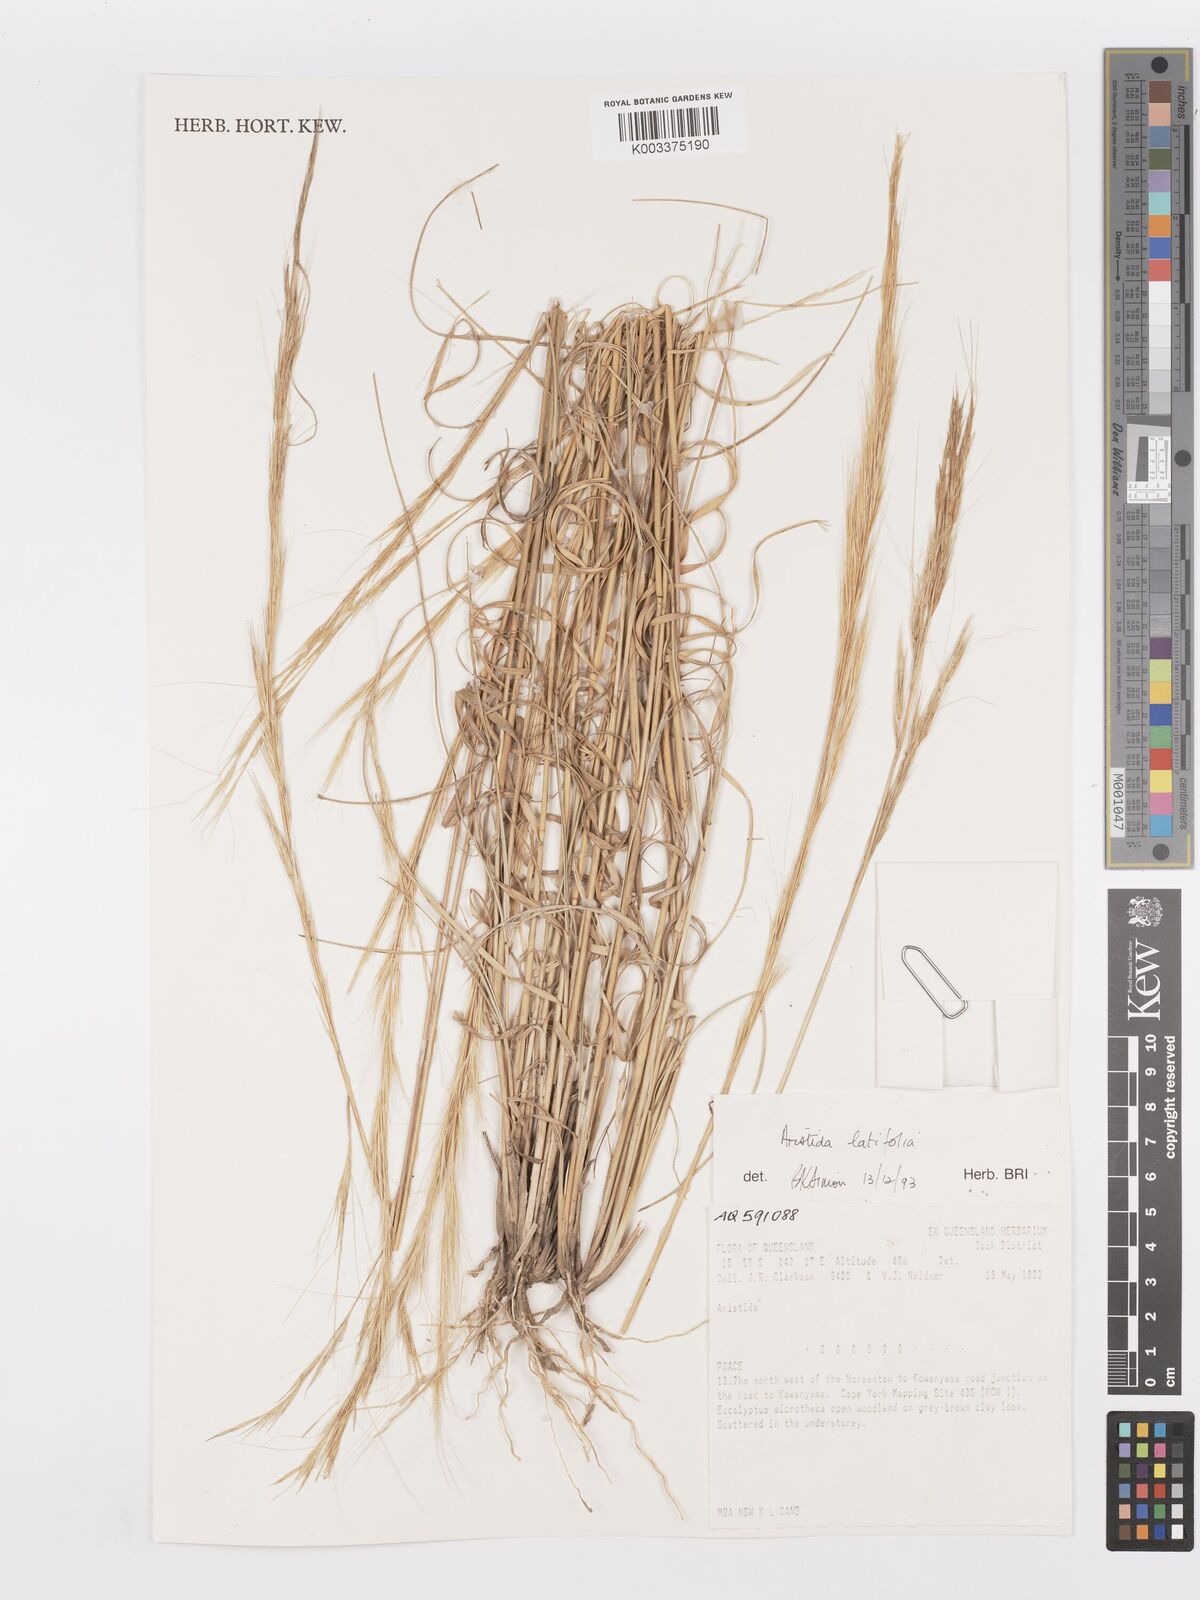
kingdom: Plantae
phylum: Tracheophyta
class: Liliopsida
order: Poales
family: Poaceae
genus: Aristida
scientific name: Aristida latifolia
